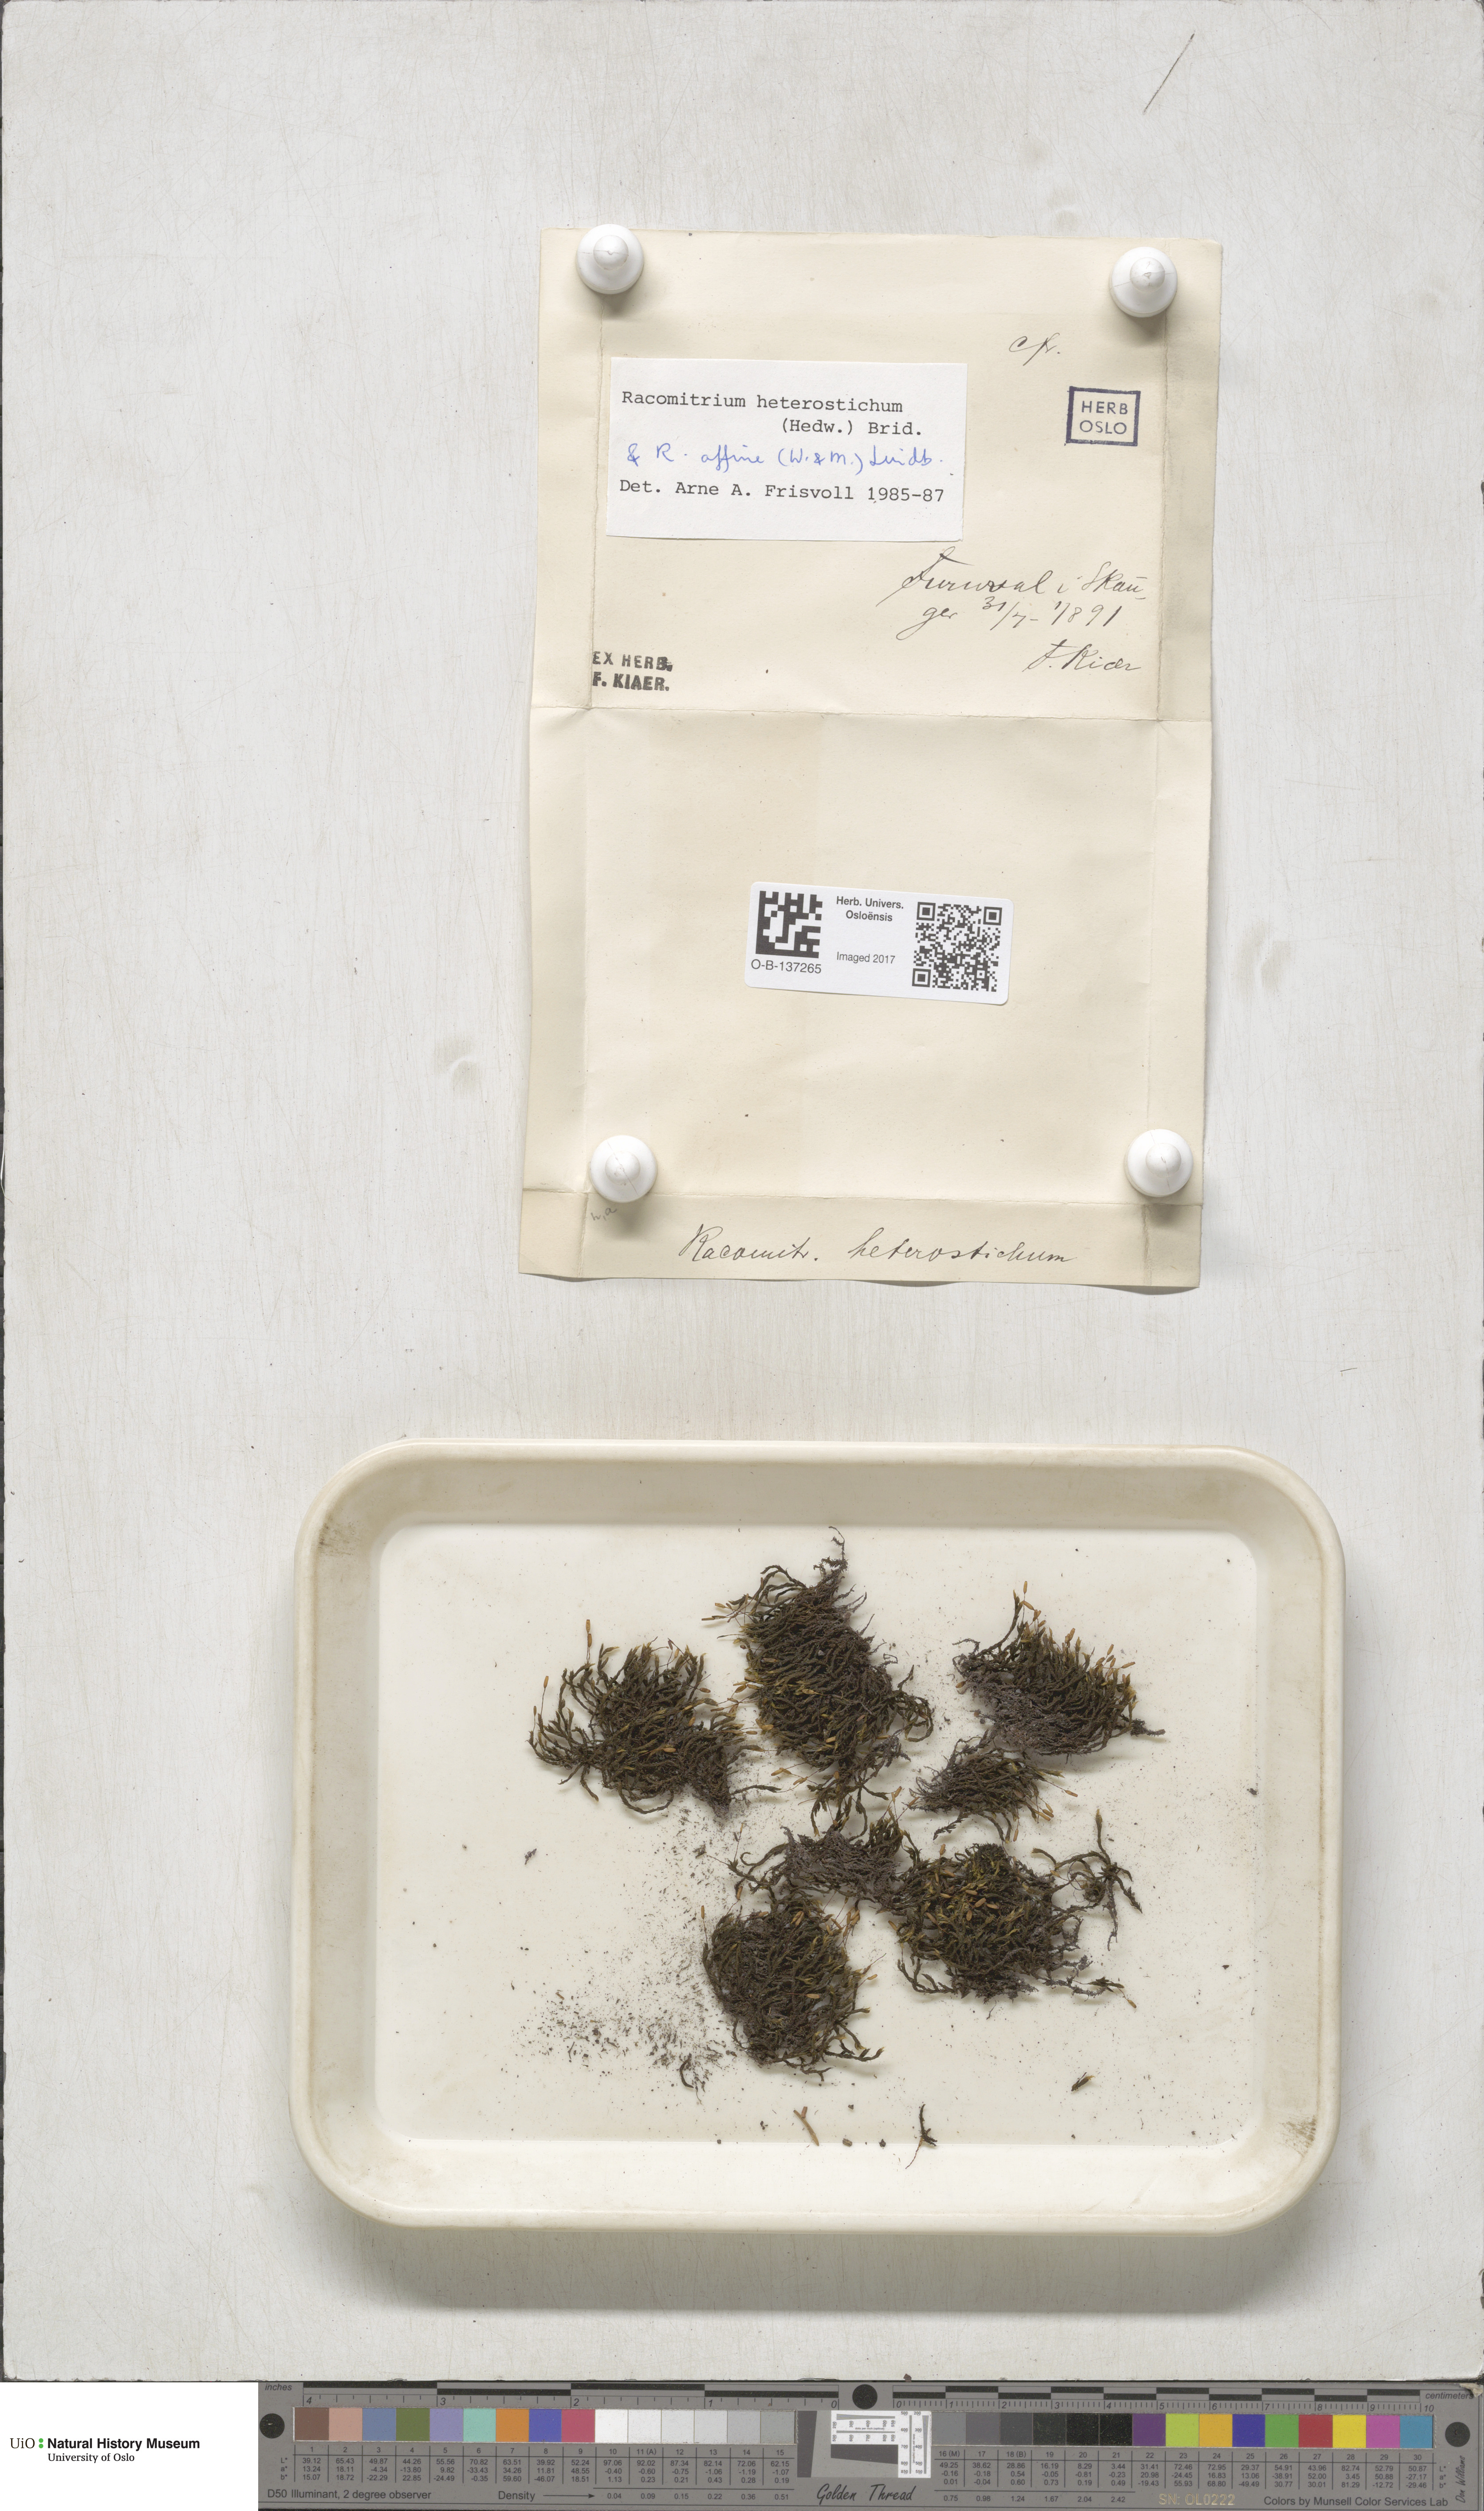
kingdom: Plantae
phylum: Bryophyta
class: Bryopsida
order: Grimmiales
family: Grimmiaceae
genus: Bucklandiella
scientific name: Bucklandiella heterosticha
